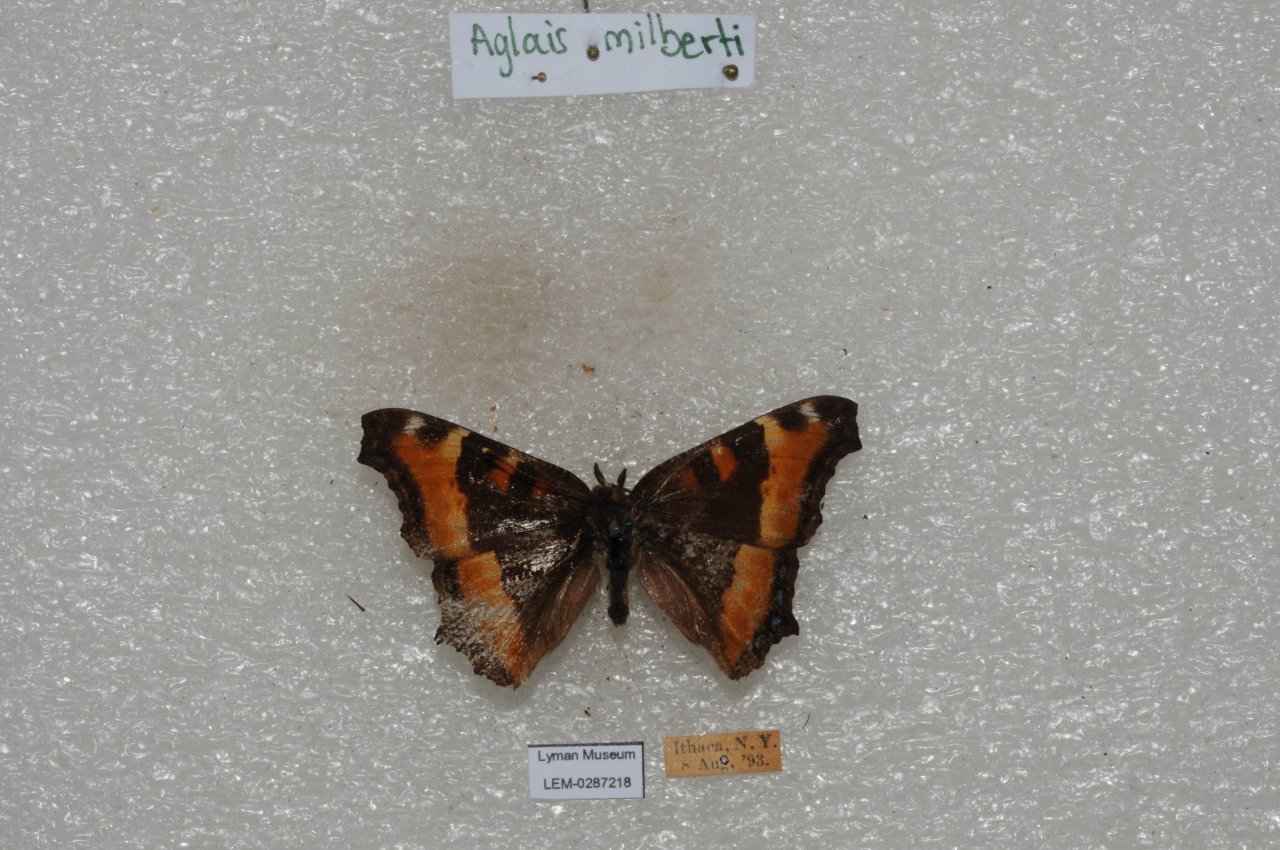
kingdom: Animalia
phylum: Arthropoda
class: Insecta
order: Lepidoptera
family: Nymphalidae
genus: Aglais
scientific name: Aglais milberti
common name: Milbert's Tortoiseshell
